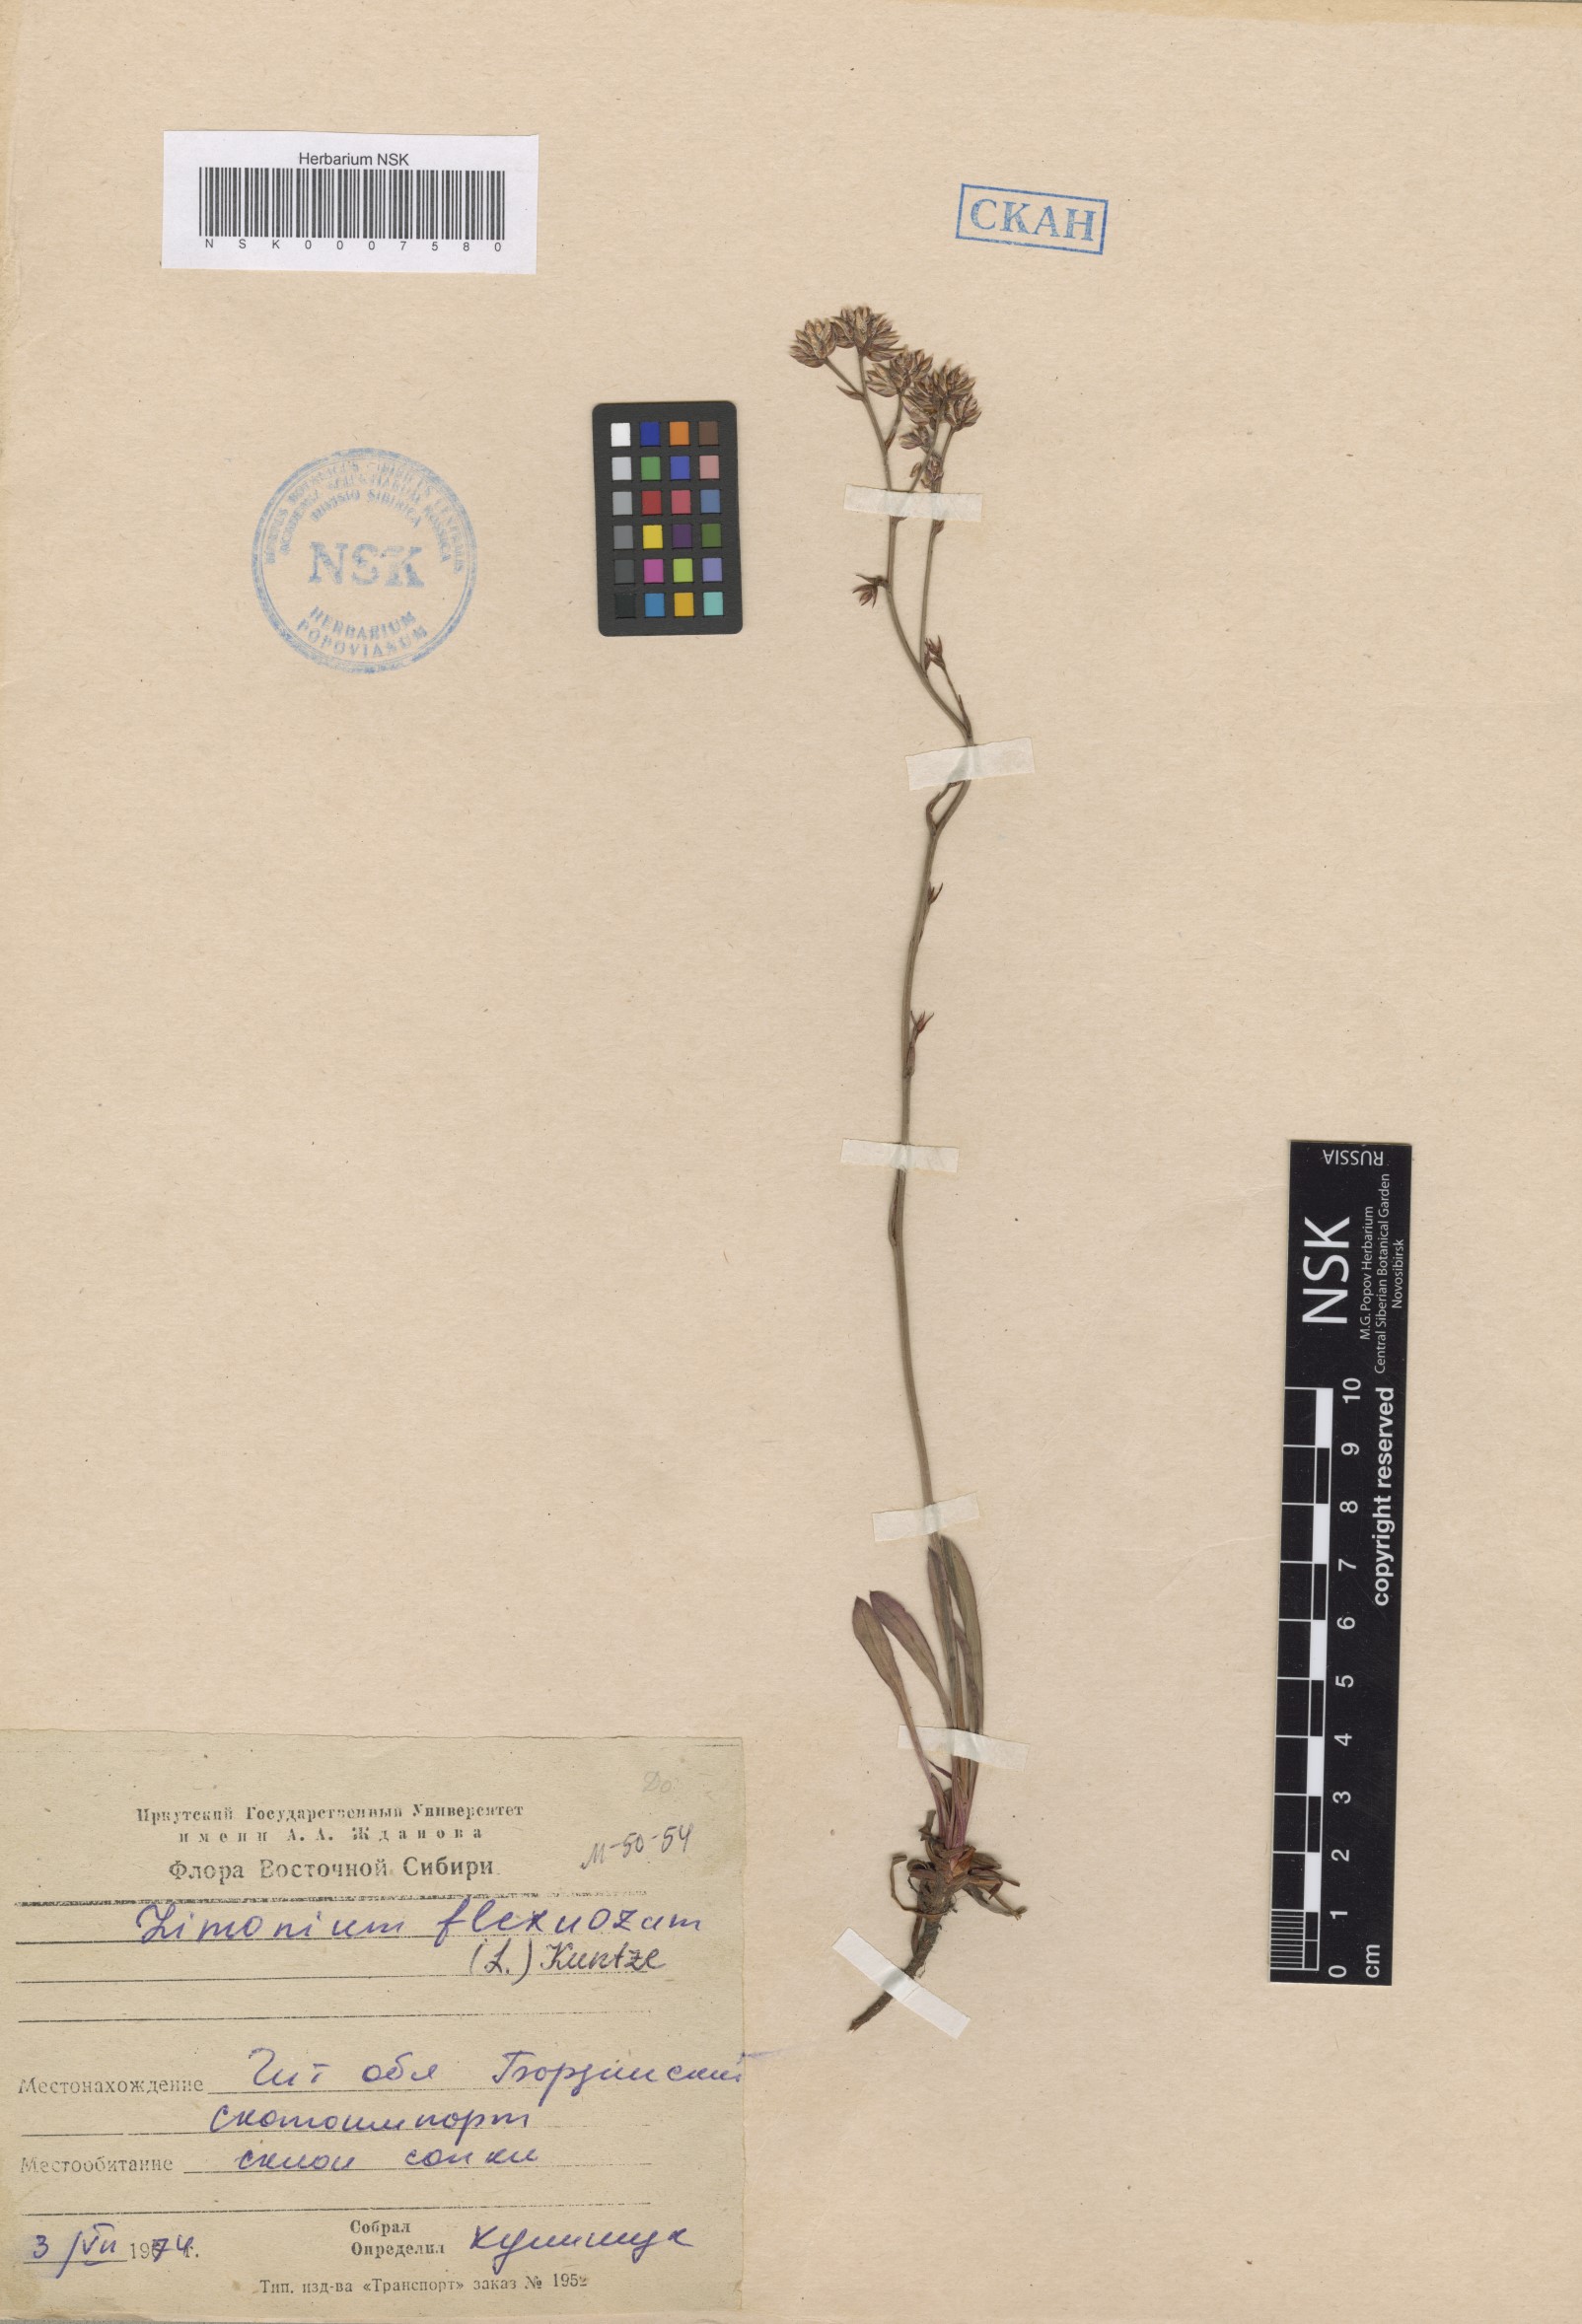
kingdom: Plantae
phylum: Tracheophyta
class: Magnoliopsida
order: Caryophyllales
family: Plumbaginaceae
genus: Limonium
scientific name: Limonium flexuosum
